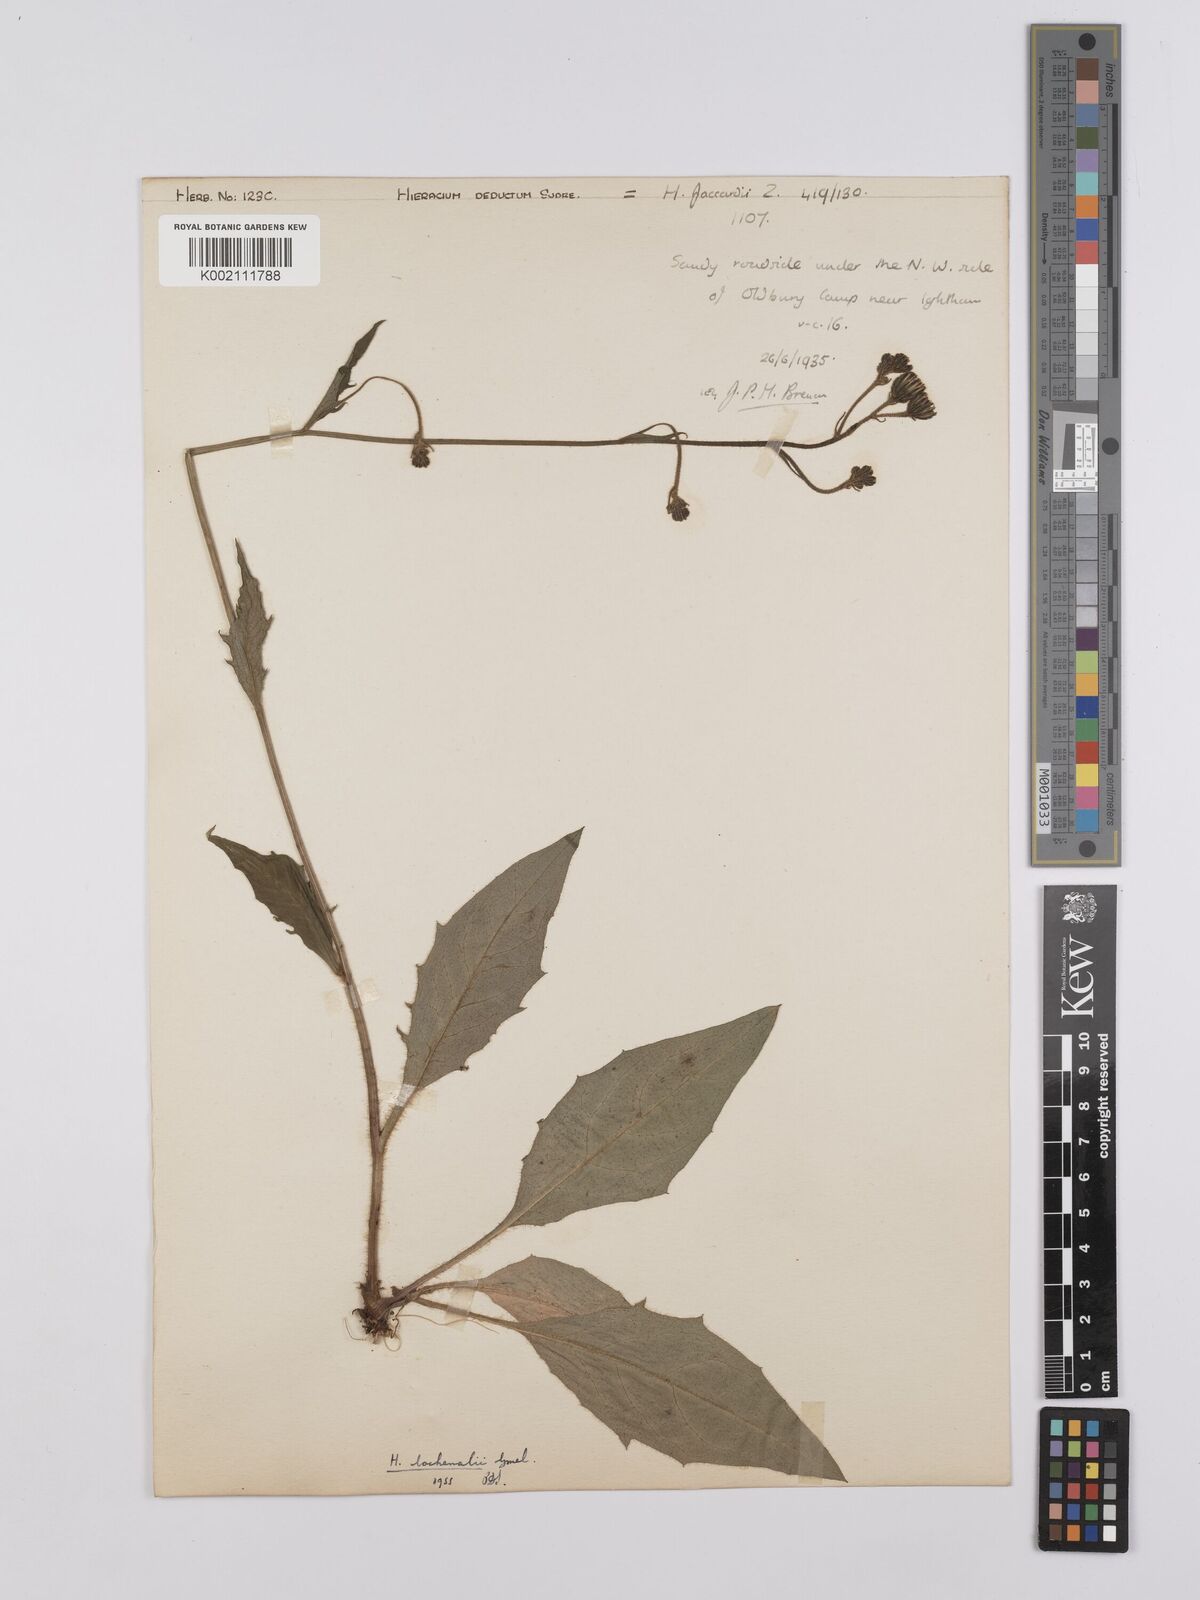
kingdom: Plantae
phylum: Tracheophyta
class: Magnoliopsida
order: Asterales
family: Asteraceae
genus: Hieracium
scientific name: Hieracium lachenalii
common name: Common hawkweed
